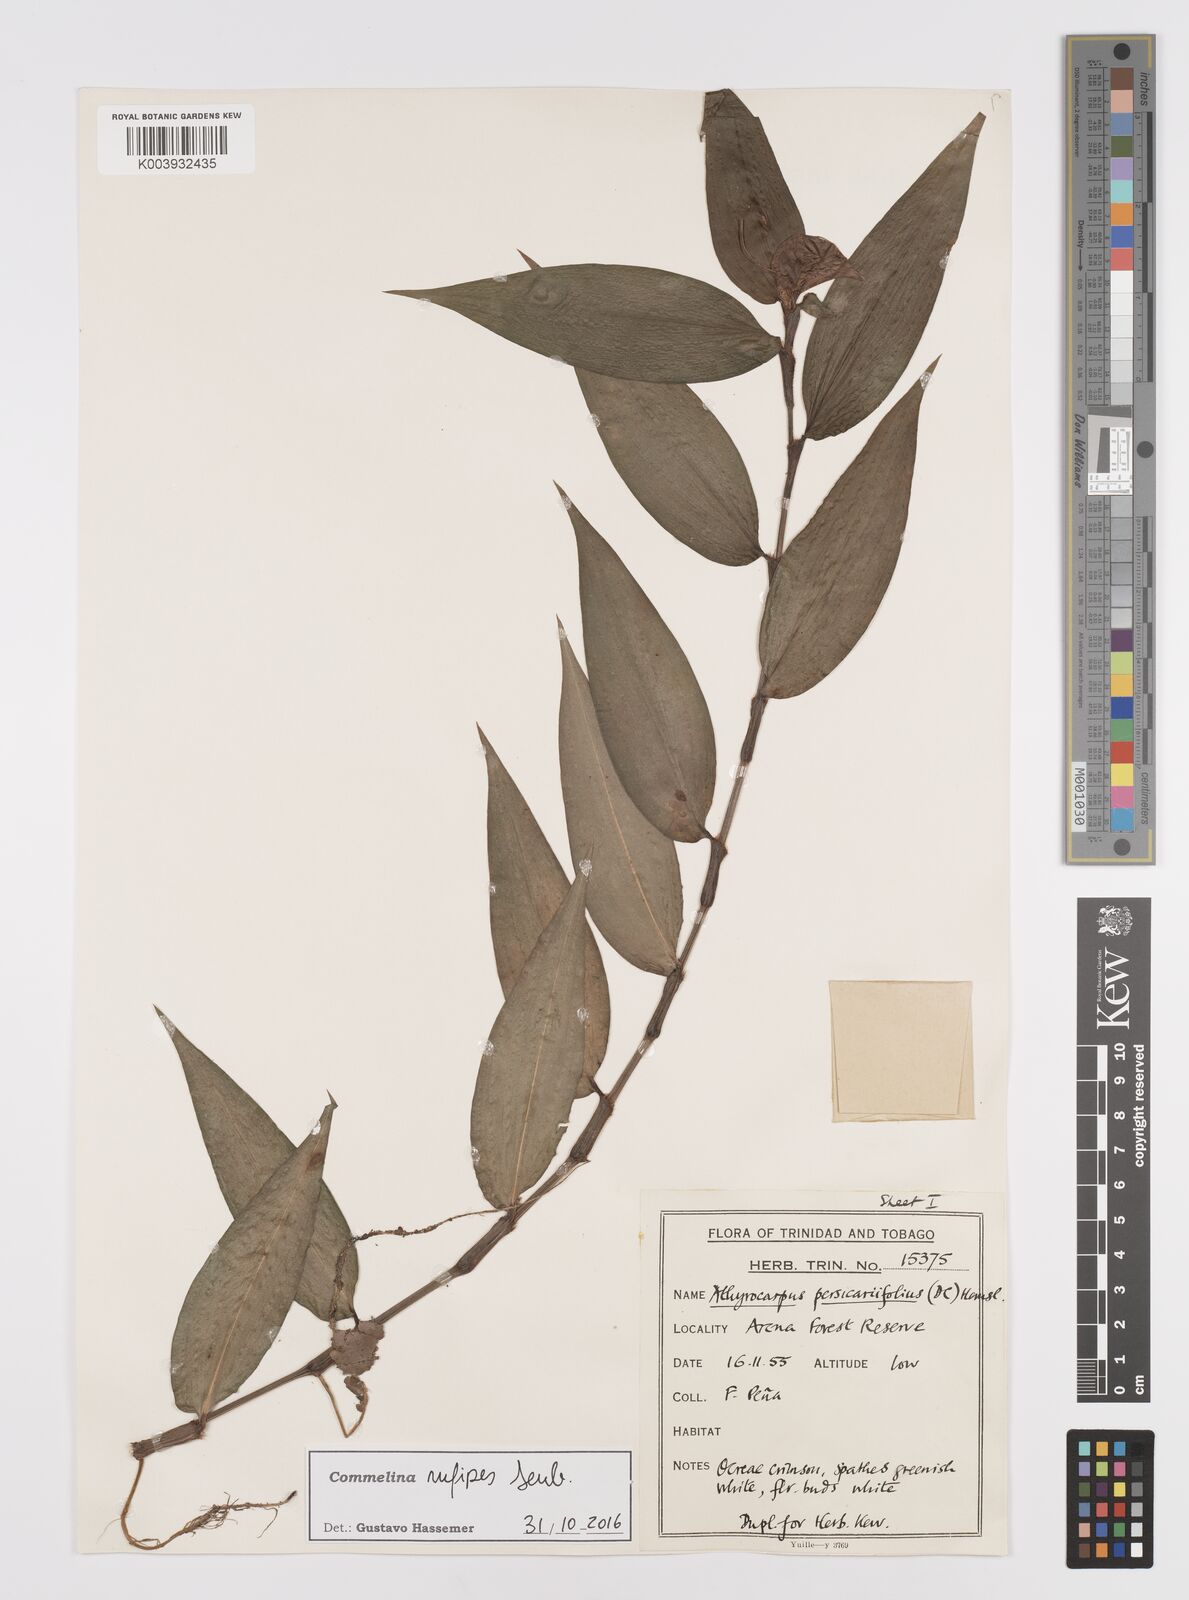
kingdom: Plantae
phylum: Tracheophyta
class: Liliopsida
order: Commelinales
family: Commelinaceae
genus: Commelina
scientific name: Commelina rufipes
